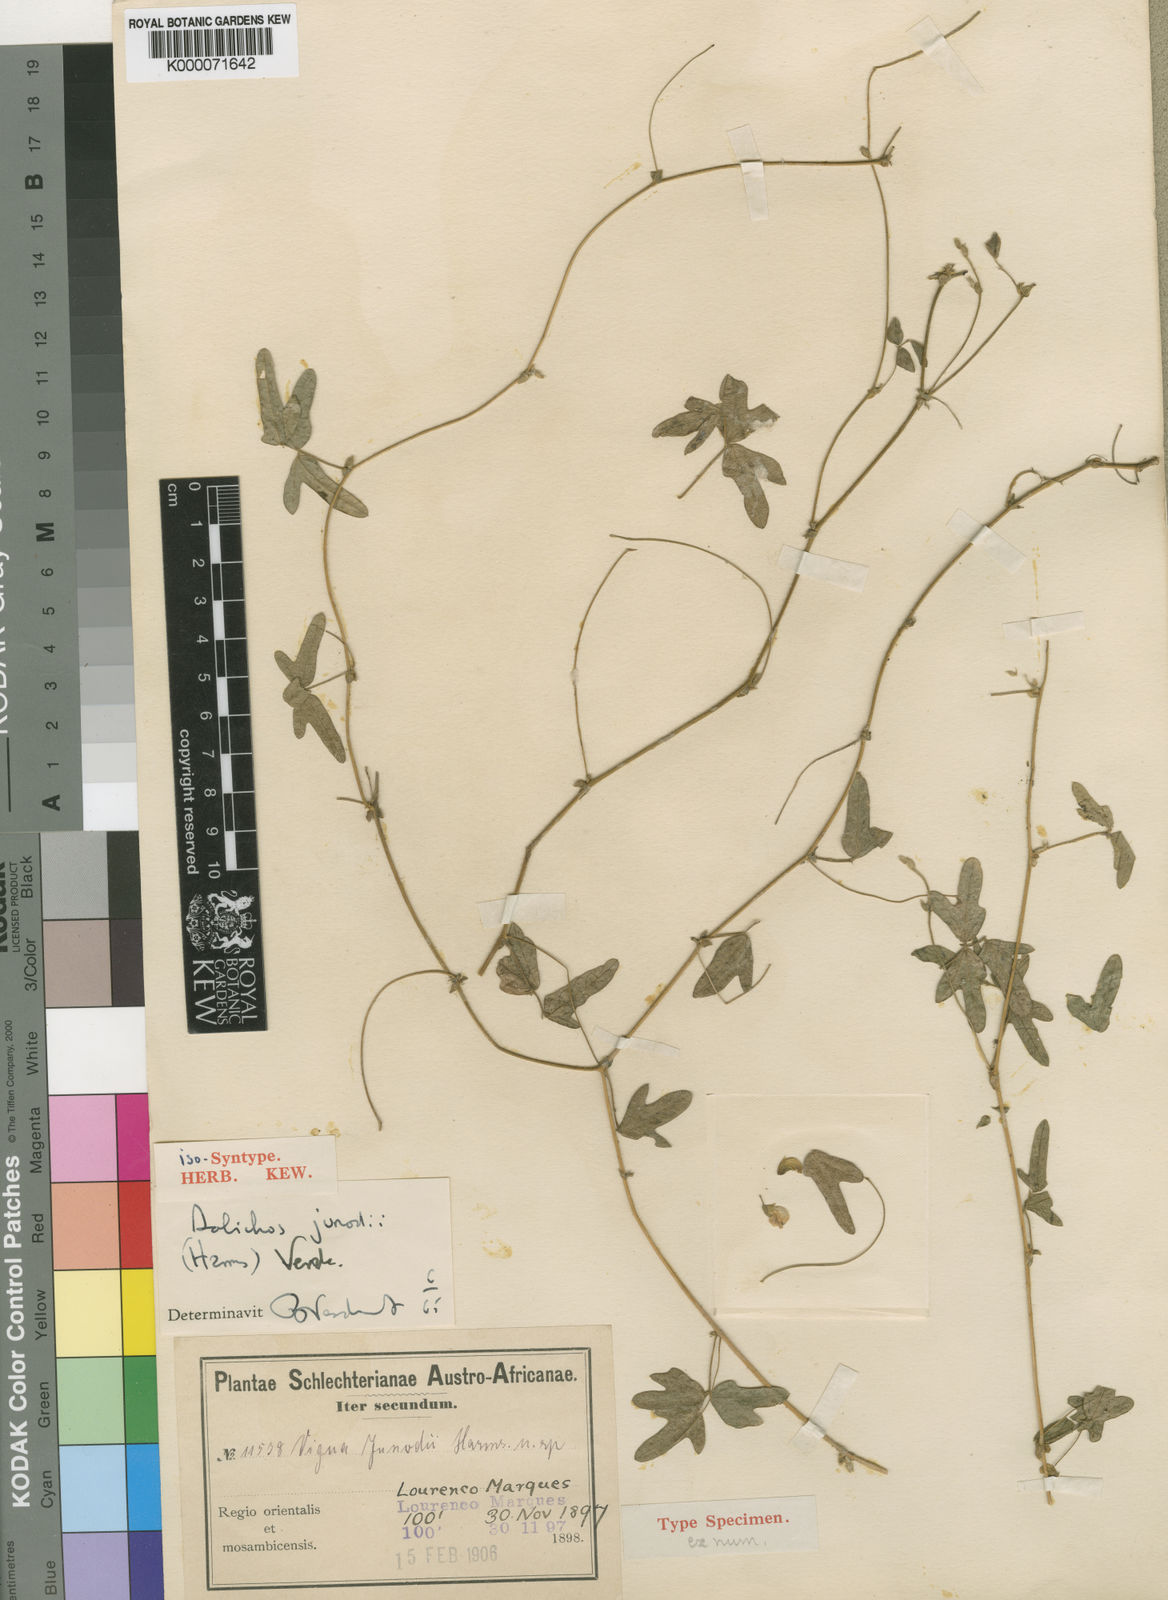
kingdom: Plantae
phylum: Tracheophyta
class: Magnoliopsida
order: Fabales
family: Fabaceae
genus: Dolichos
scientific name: Dolichos junodii
